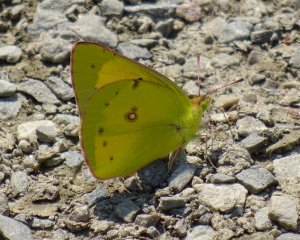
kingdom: Animalia
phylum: Arthropoda
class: Insecta
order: Lepidoptera
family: Pieridae
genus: Colias
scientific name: Colias eurytheme
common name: Orange Sulphur
